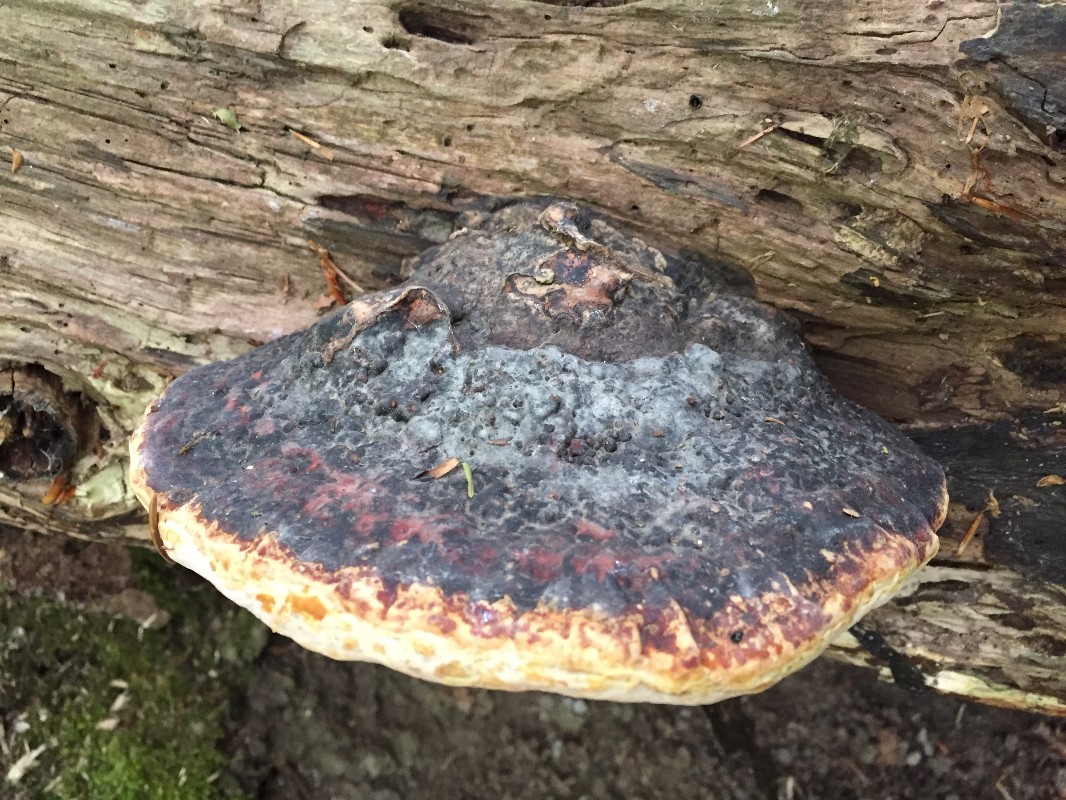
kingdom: Fungi
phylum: Basidiomycota
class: Agaricomycetes
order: Polyporales
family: Fomitopsidaceae
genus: Fomitopsis
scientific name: Fomitopsis pinicola
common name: randbæltet hovporesvamp
